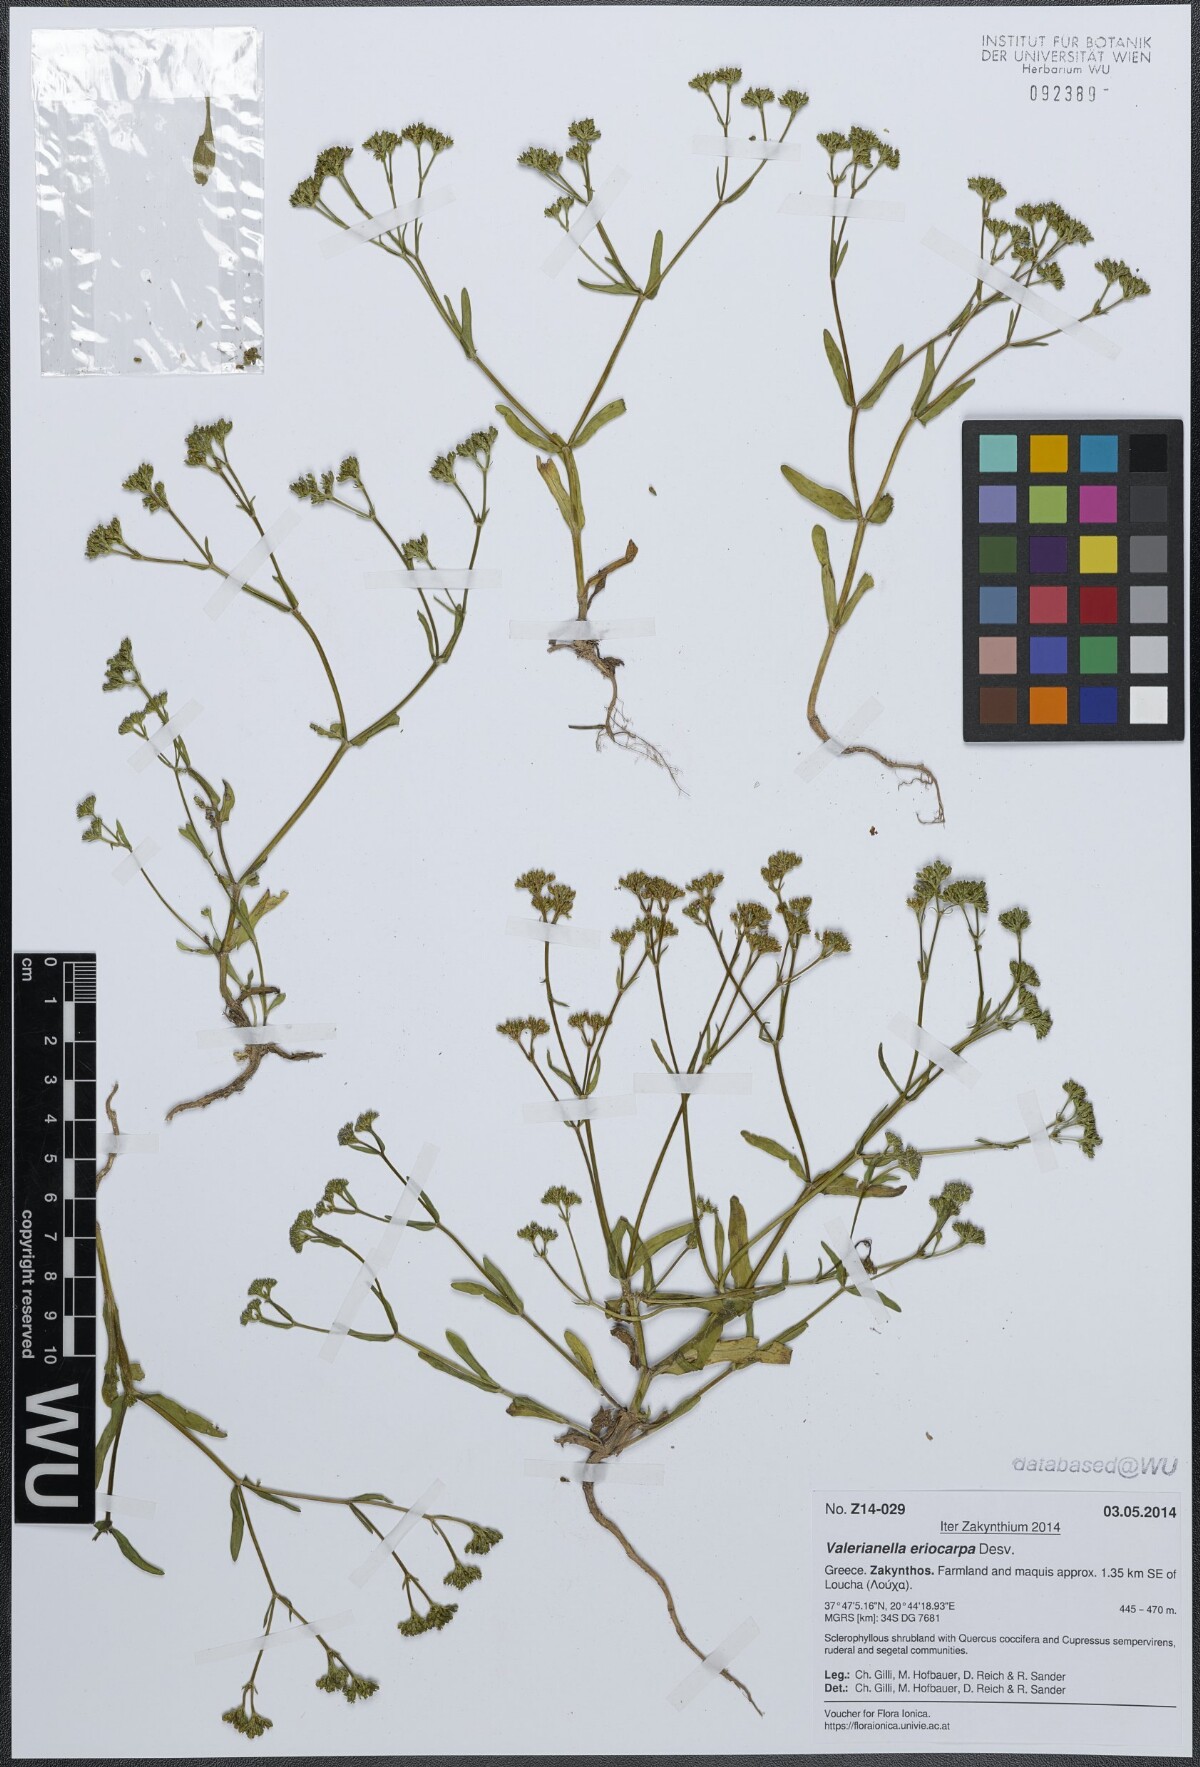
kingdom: Plantae
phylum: Tracheophyta
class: Magnoliopsida
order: Dipsacales
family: Caprifoliaceae
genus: Valerianella
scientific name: Valerianella eriocarpa
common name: Hairy-fruited cornsalad
